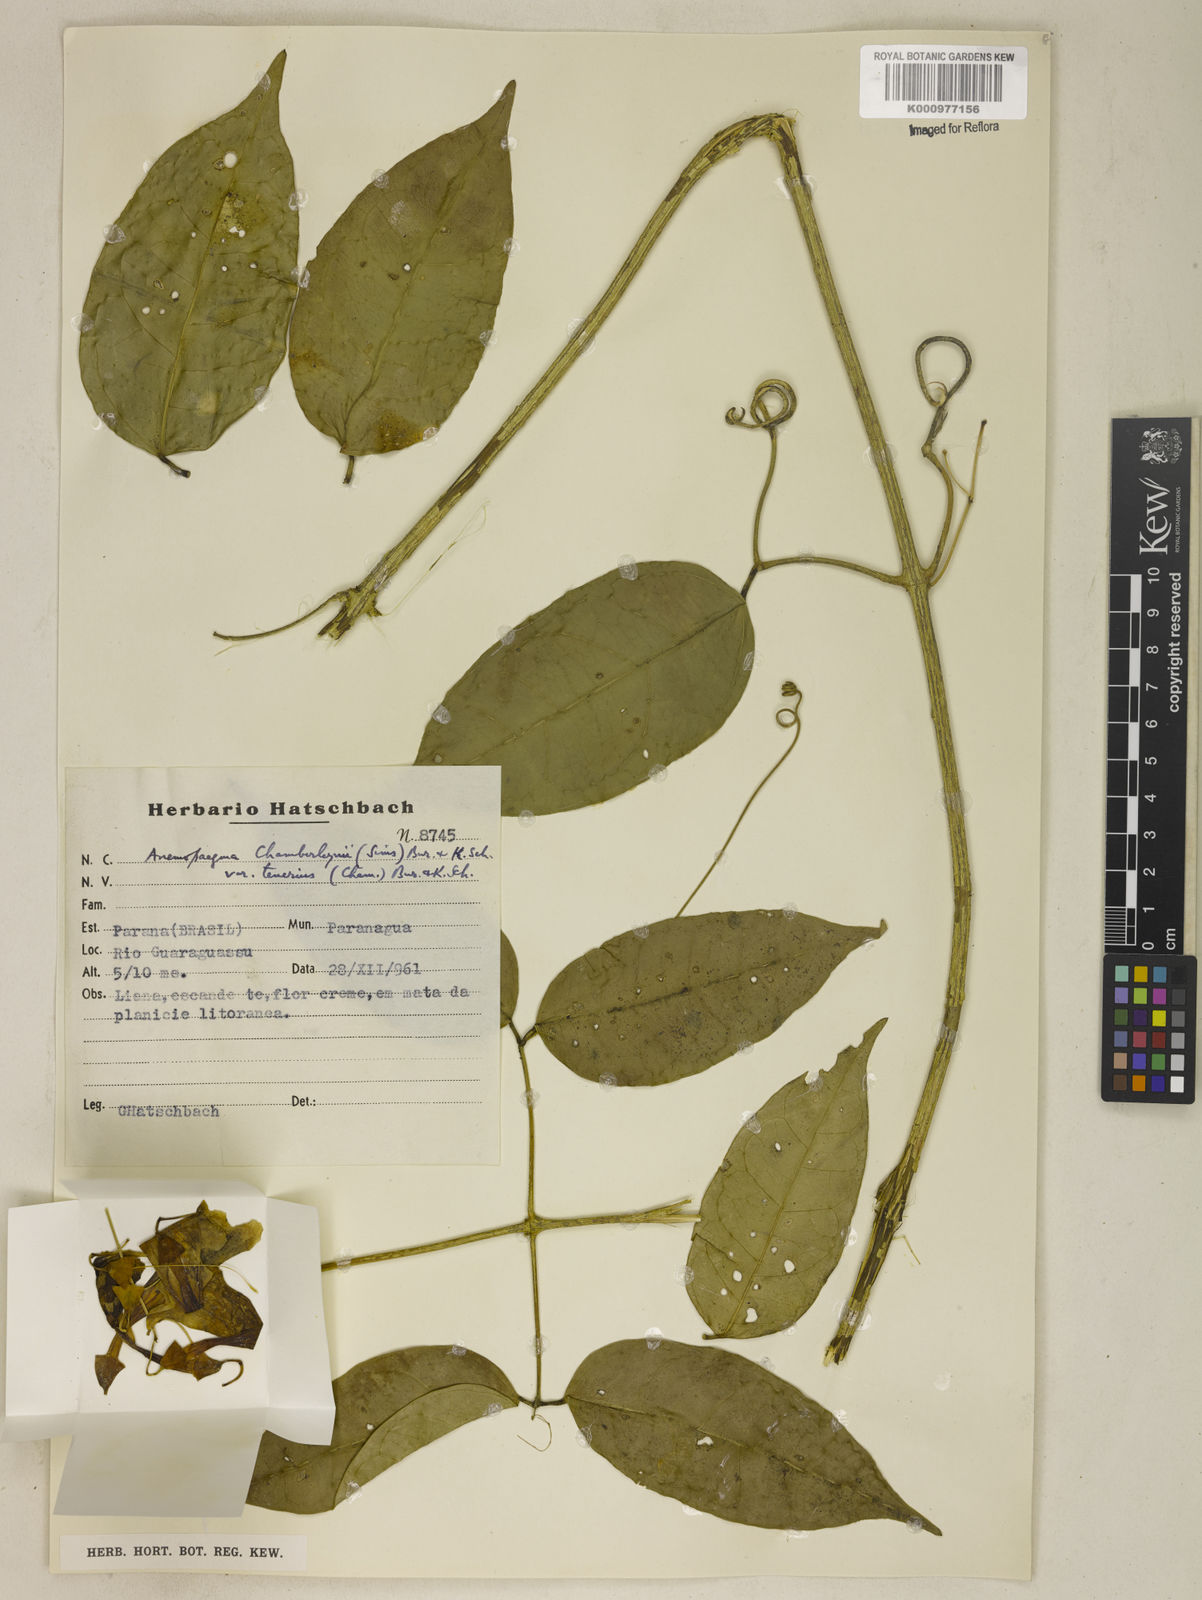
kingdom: Plantae
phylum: Tracheophyta
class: Magnoliopsida
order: Lamiales
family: Bignoniaceae
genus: Anemopaegma
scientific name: Anemopaegma chamberlaynii
